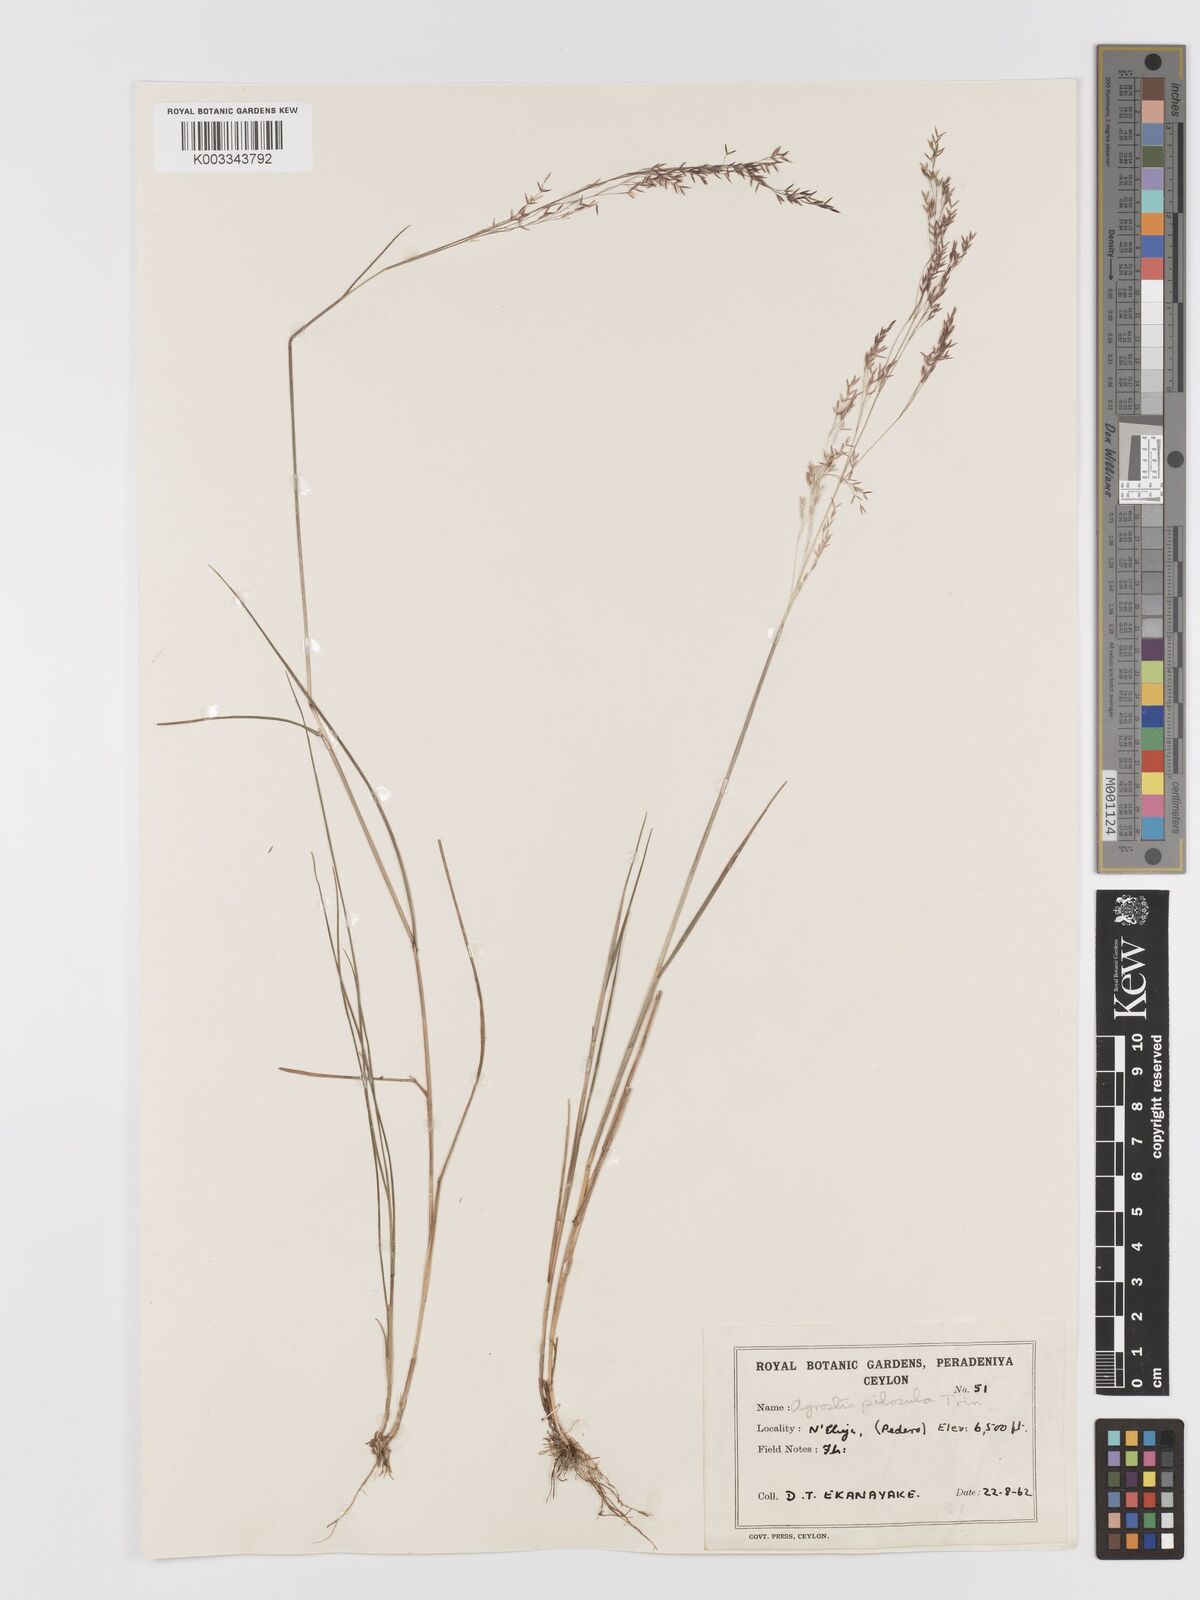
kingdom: Plantae
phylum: Tracheophyta
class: Liliopsida
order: Poales
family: Poaceae
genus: Agrostis
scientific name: Agrostis pilosula
